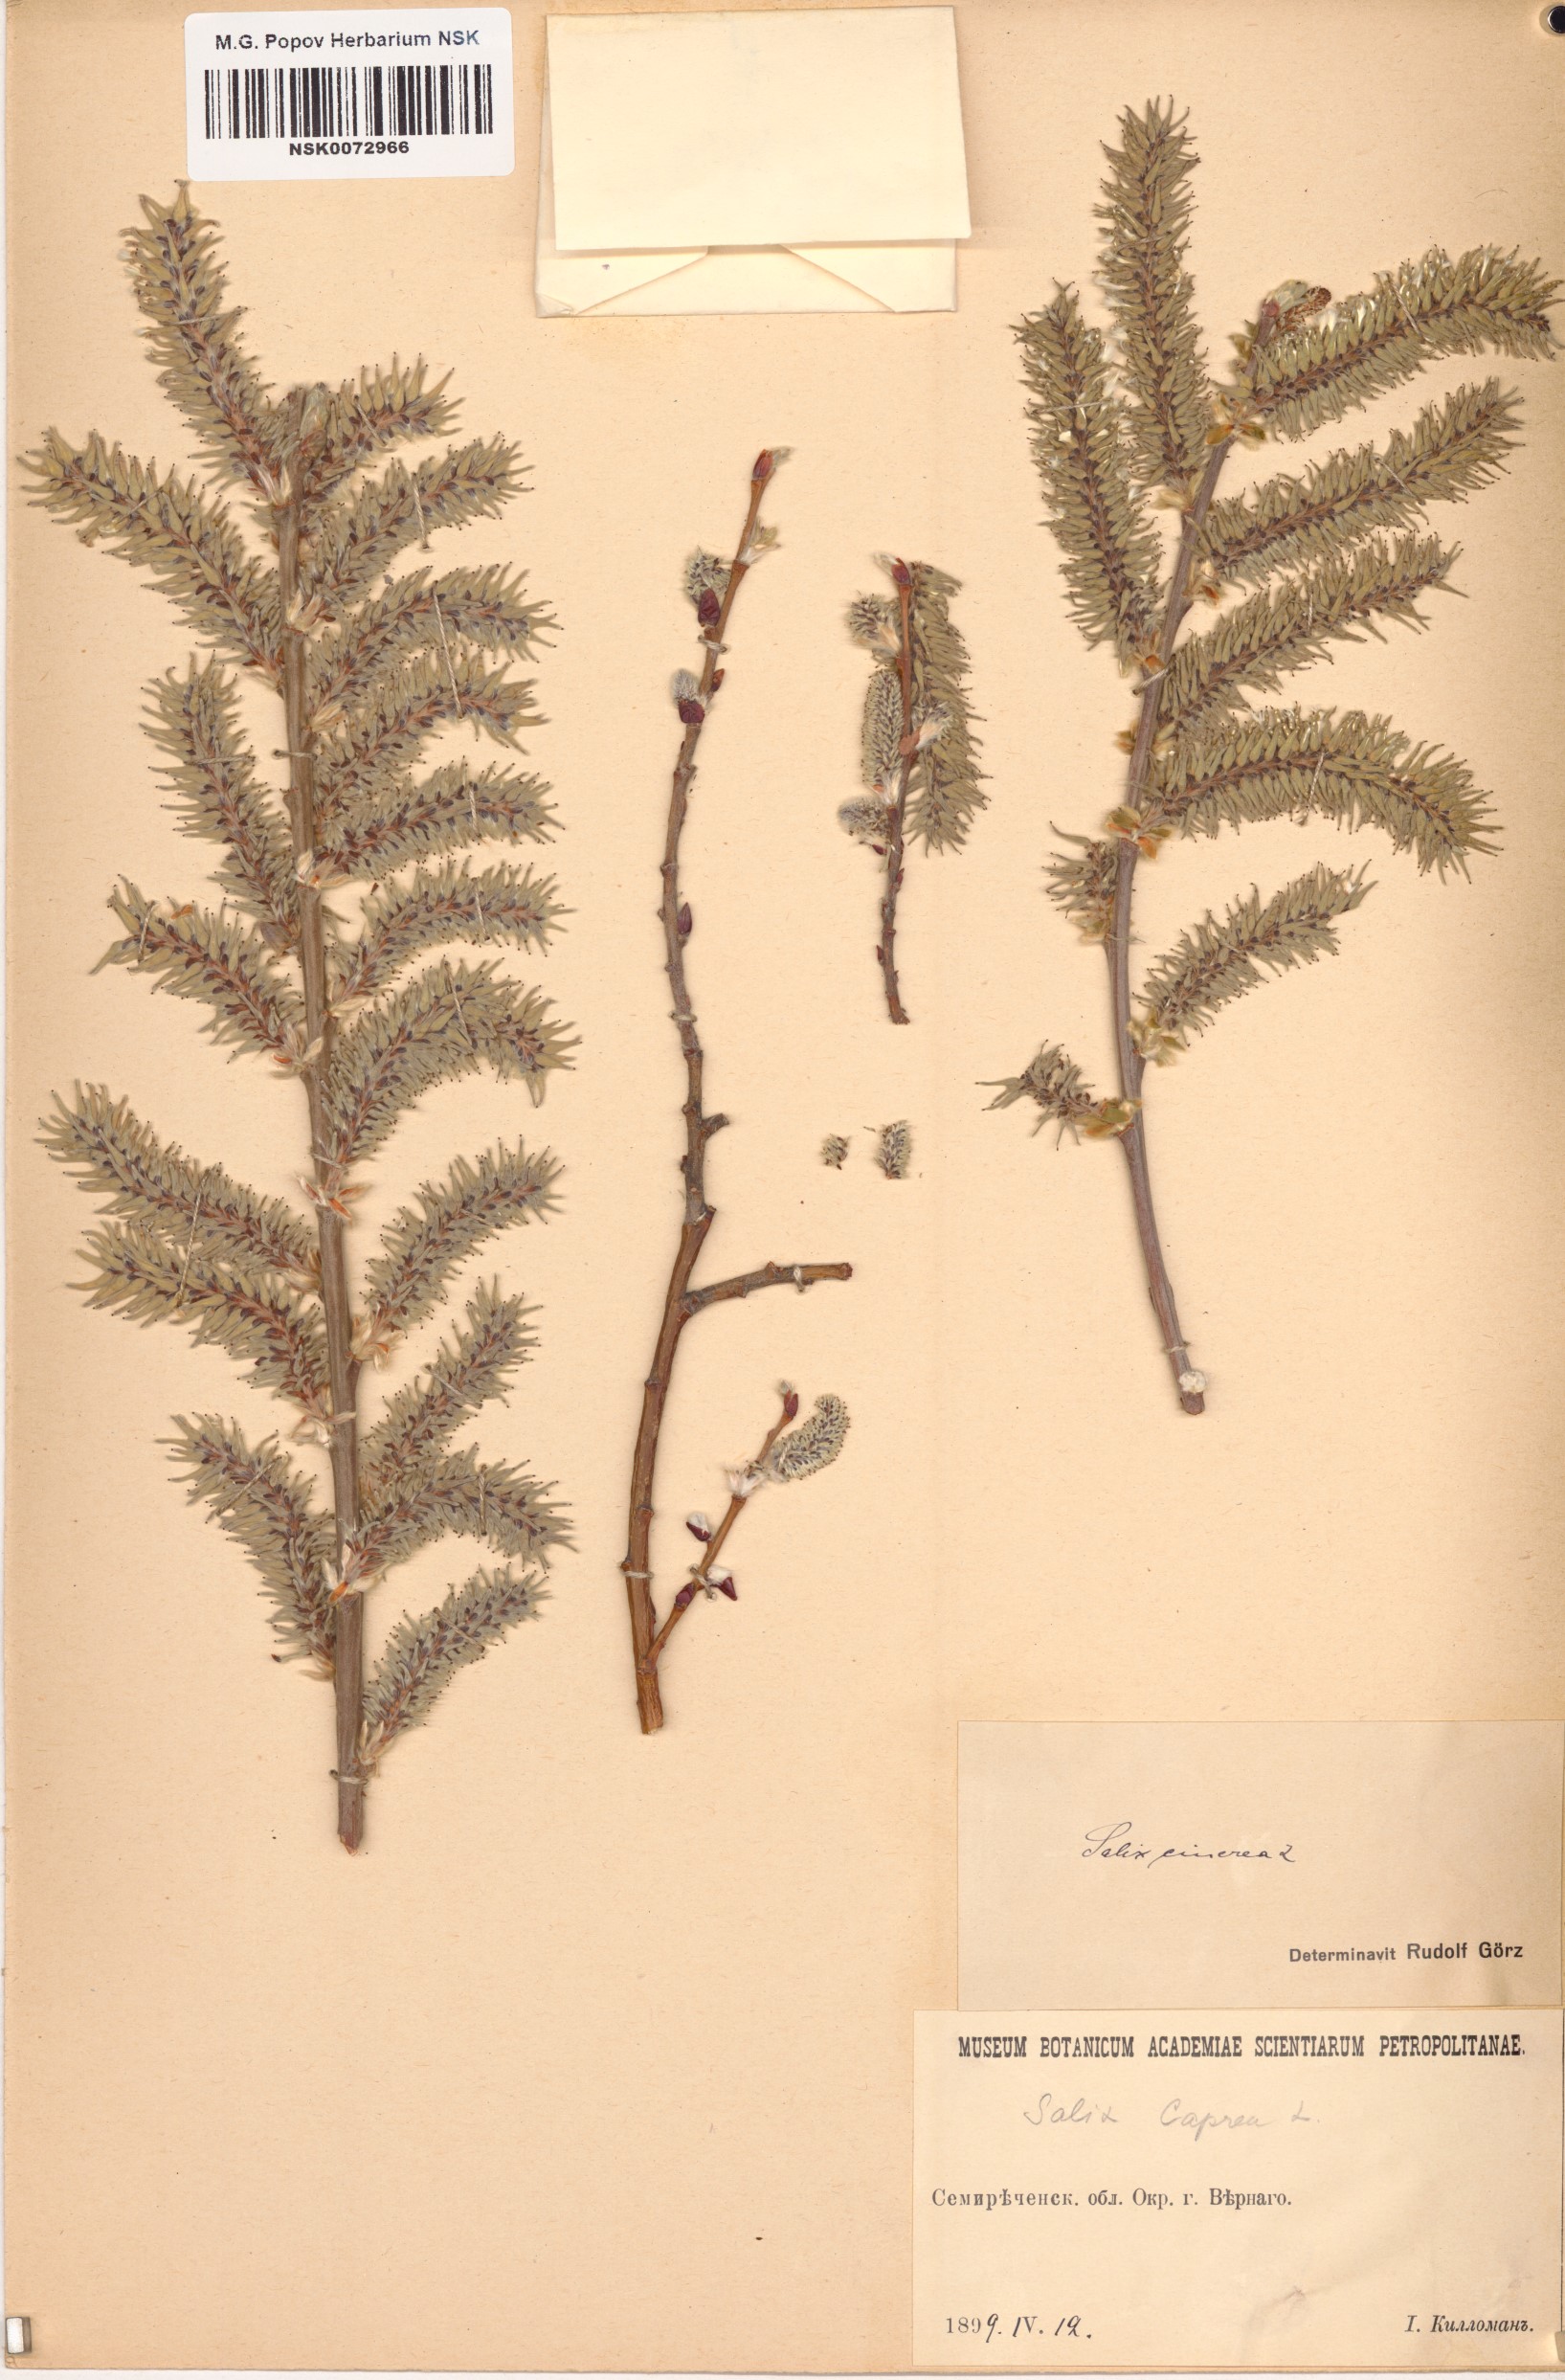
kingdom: Plantae
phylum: Tracheophyta
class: Magnoliopsida
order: Malpighiales
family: Salicaceae
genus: Salix
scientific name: Salix cinerea
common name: Common sallow
